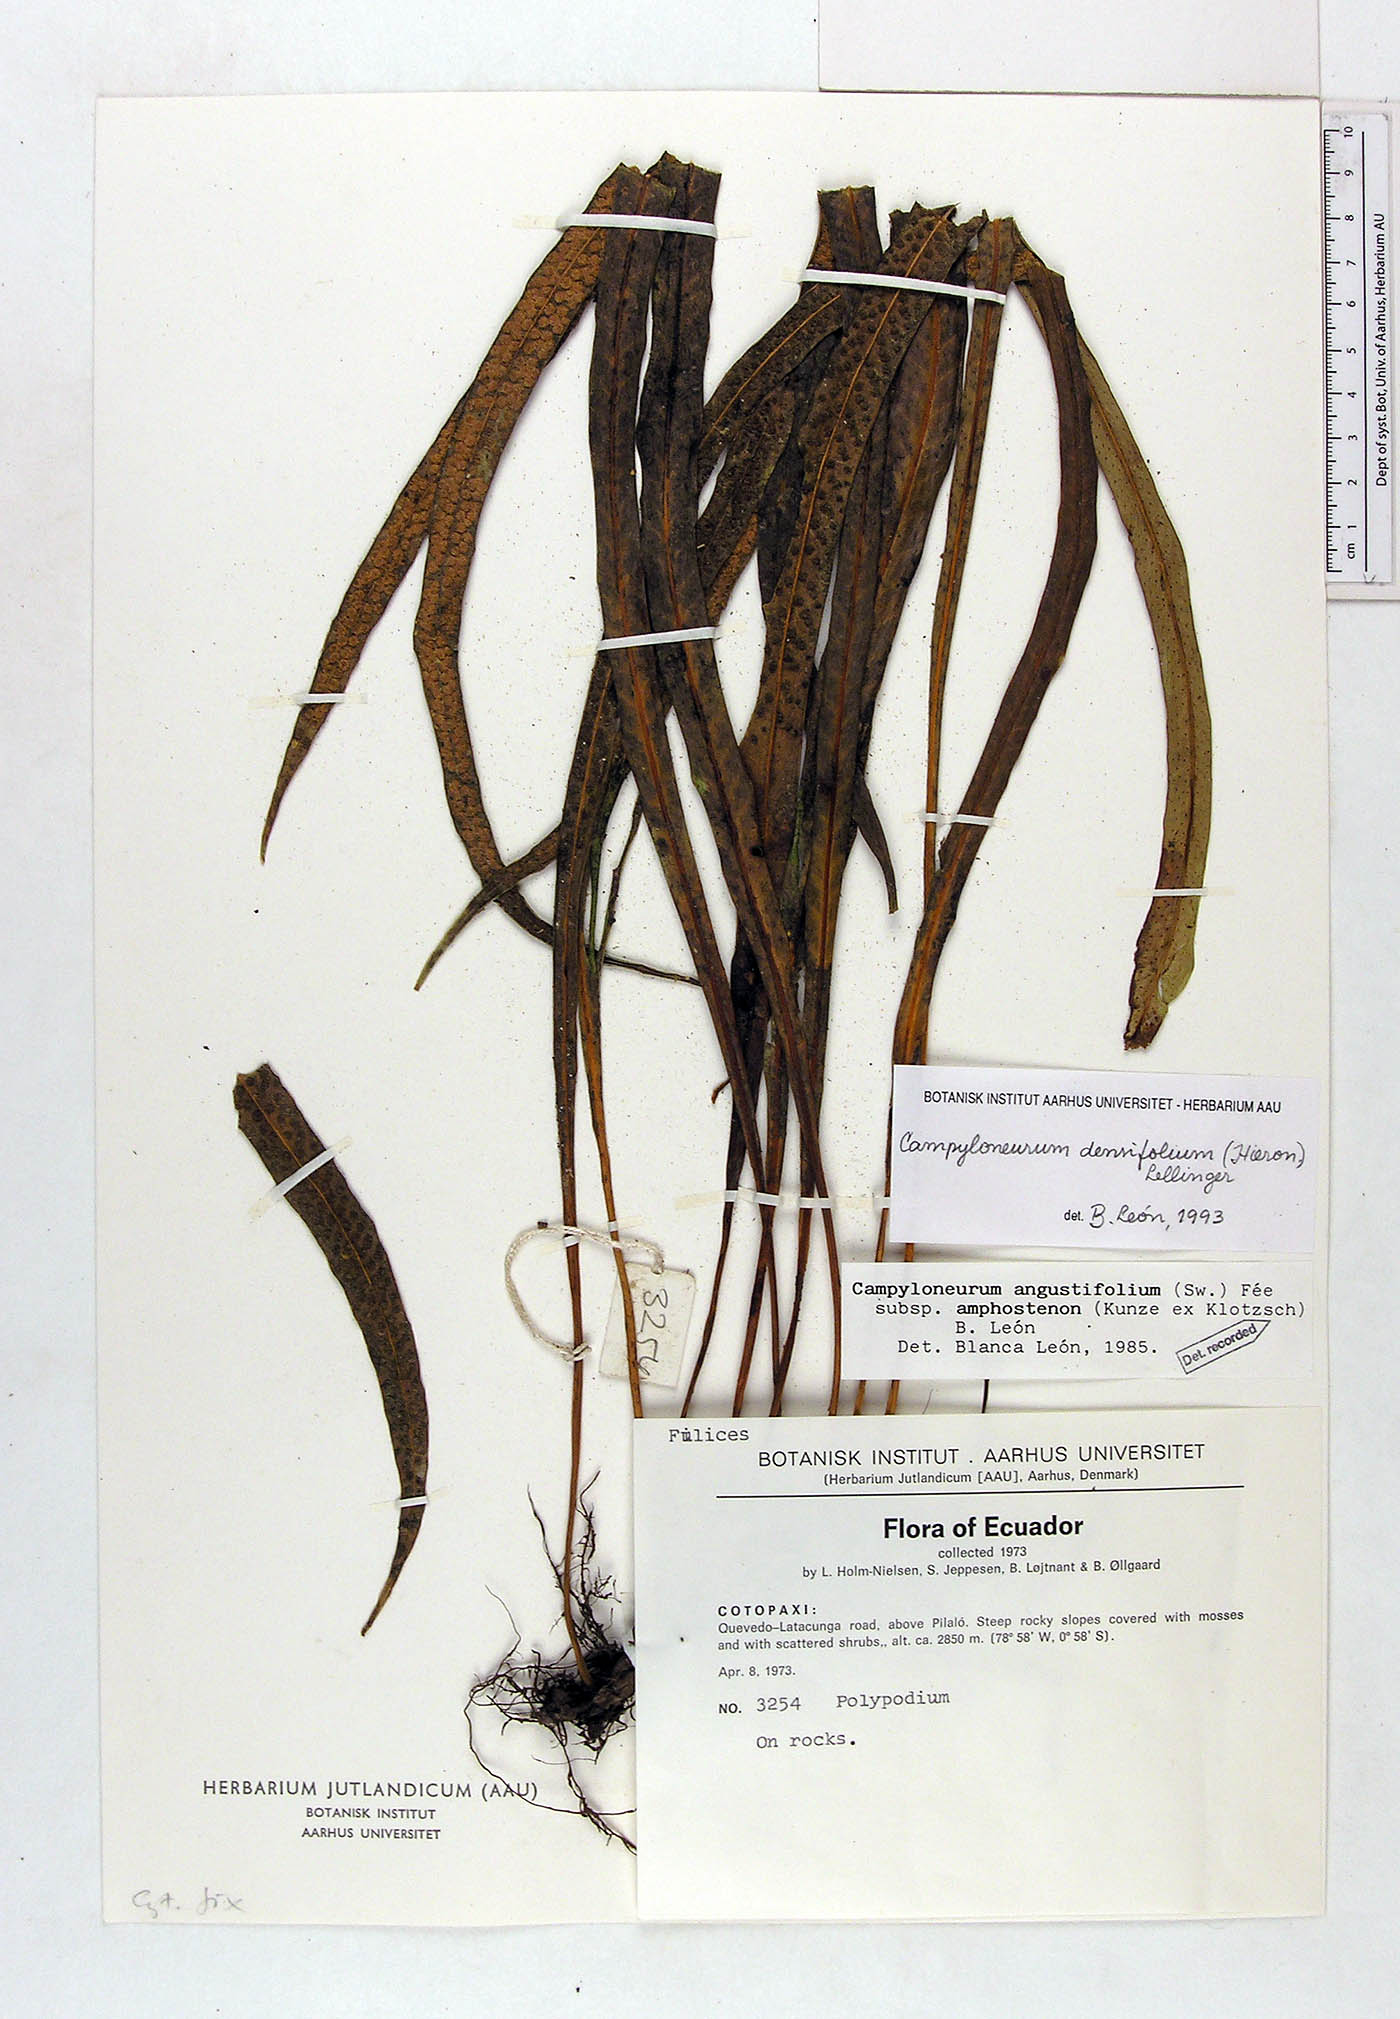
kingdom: Plantae
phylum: Tracheophyta
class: Polypodiopsida
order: Polypodiales
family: Polypodiaceae
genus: Campyloneurum
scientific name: Campyloneurum densifolium
